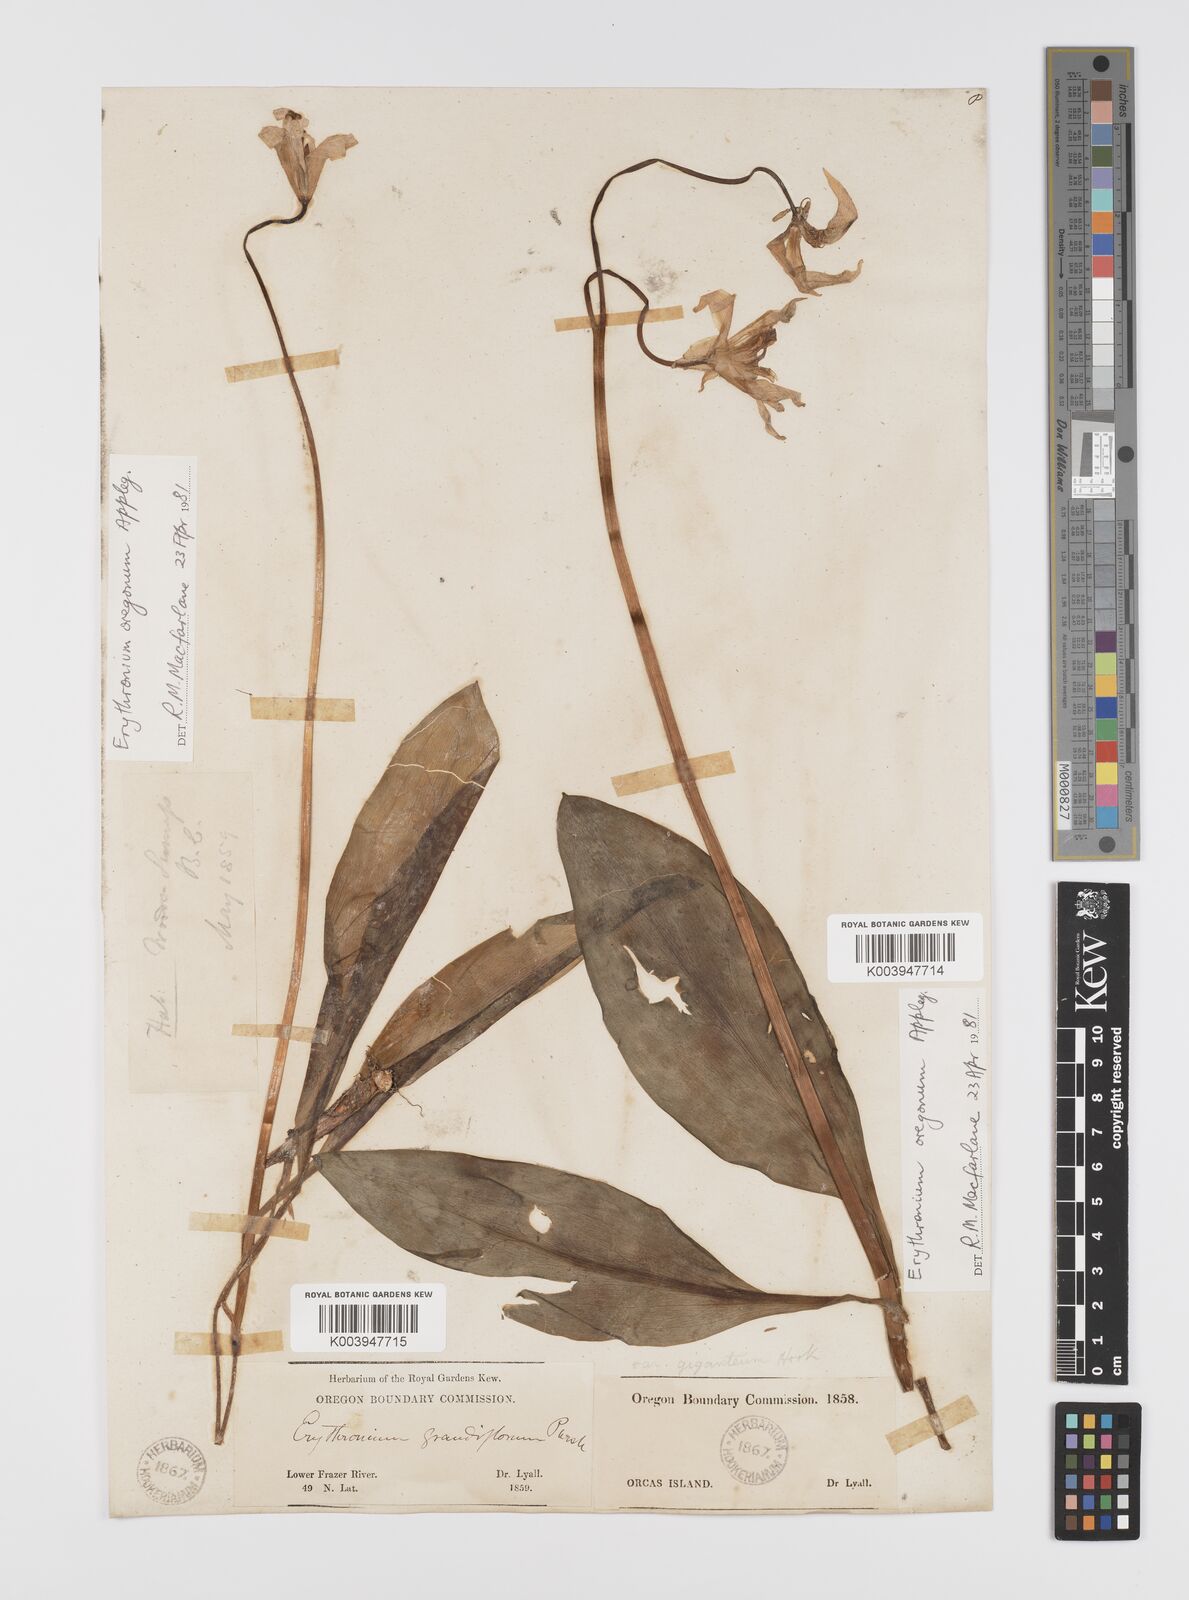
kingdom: Plantae
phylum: Tracheophyta
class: Liliopsida
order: Liliales
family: Liliaceae
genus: Erythronium
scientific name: Erythronium oregonum
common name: Giant adder's-tongue
